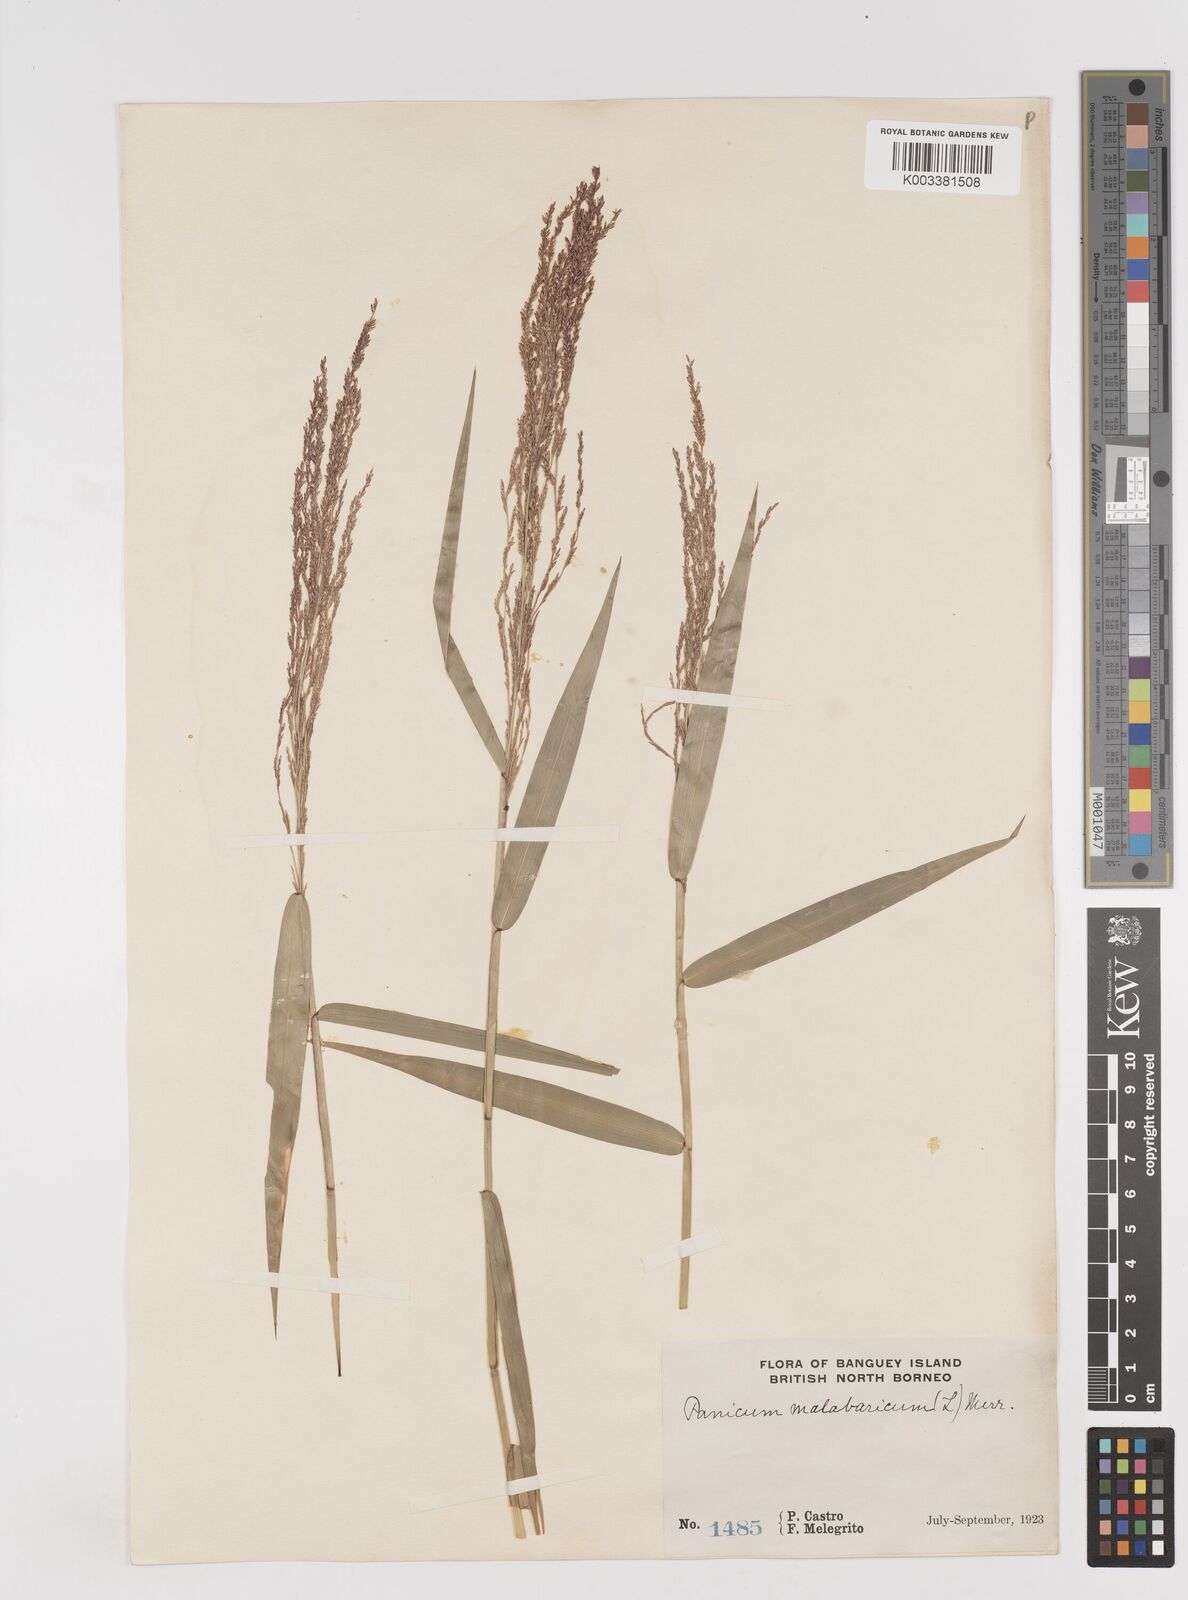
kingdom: Plantae
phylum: Tracheophyta
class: Liliopsida
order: Poales
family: Poaceae
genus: Ottochloa
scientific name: Ottochloa nodosa
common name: Slender-panic grass
